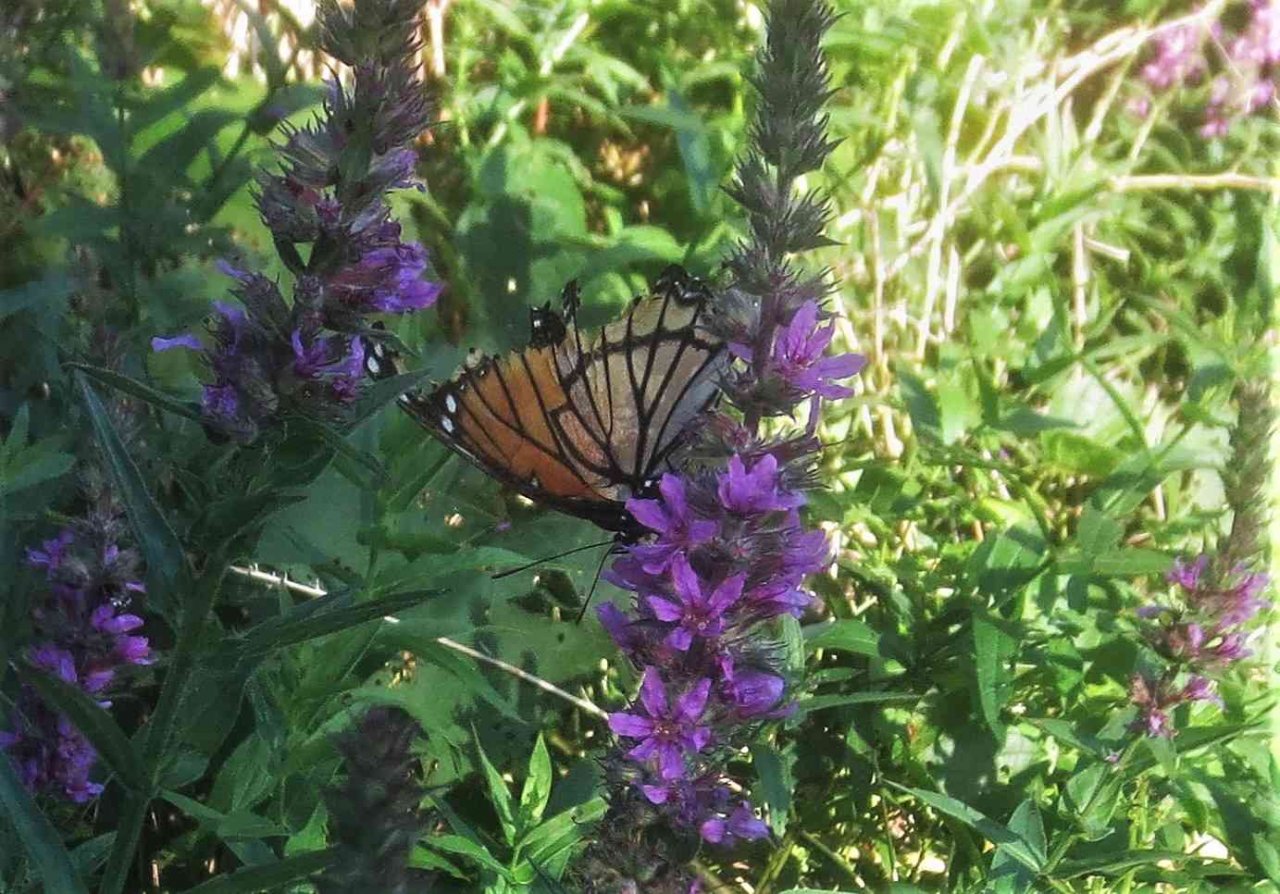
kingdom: Animalia
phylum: Arthropoda
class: Insecta
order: Lepidoptera
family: Nymphalidae
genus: Limenitis
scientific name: Limenitis archippus
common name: Viceroy
